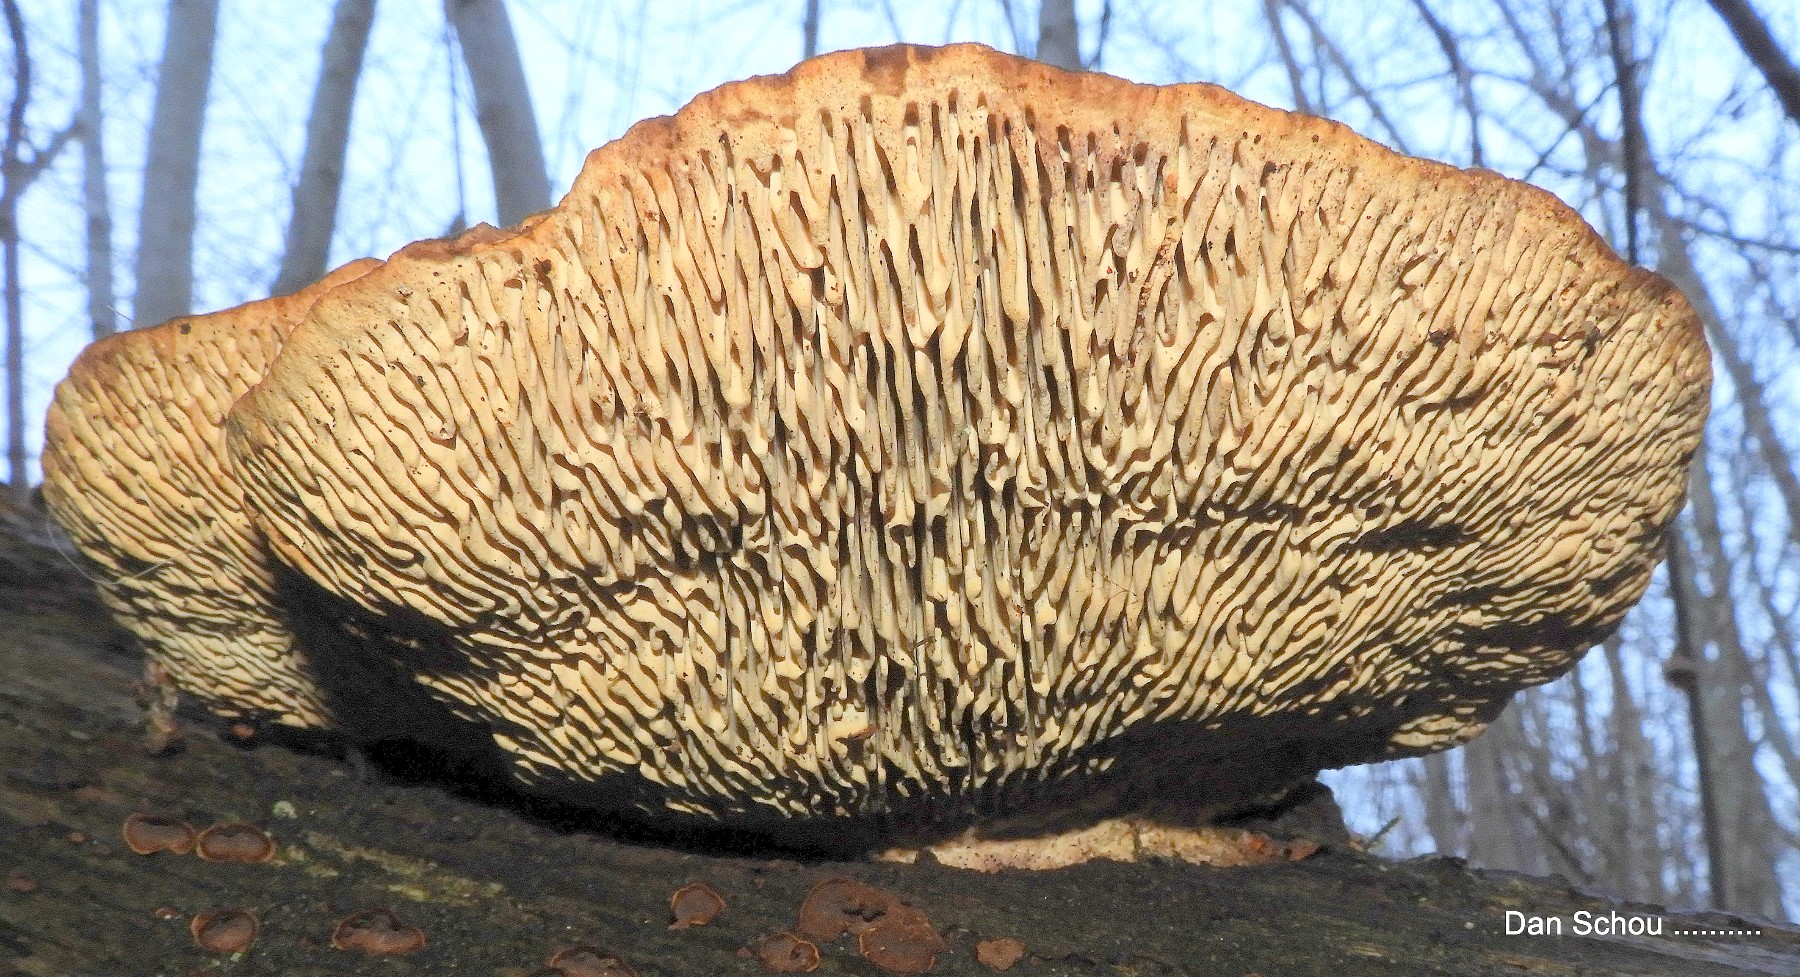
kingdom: Fungi
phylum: Basidiomycota
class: Agaricomycetes
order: Polyporales
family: Fomitopsidaceae
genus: Daedalea
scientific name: Daedalea quercina
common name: ege-labyrintsvamp
